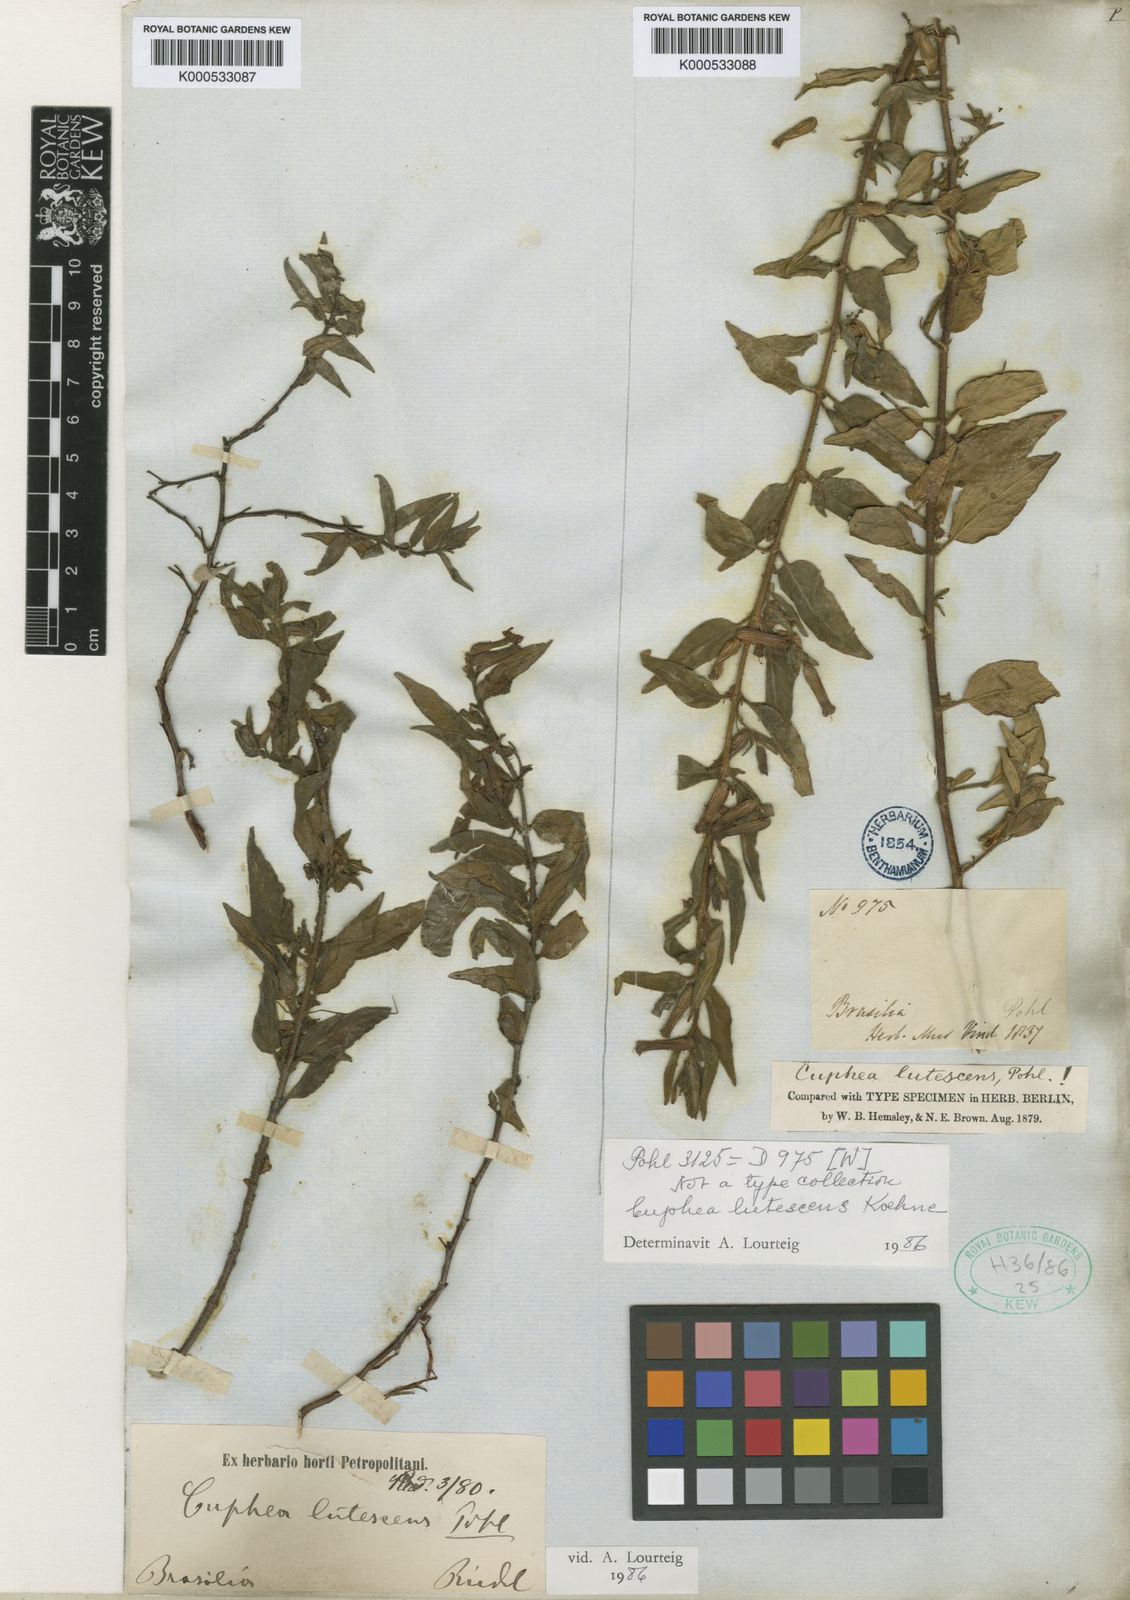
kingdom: Plantae
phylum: Tracheophyta
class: Magnoliopsida
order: Myrtales
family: Lythraceae
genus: Cuphea
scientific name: Cuphea lutescens
